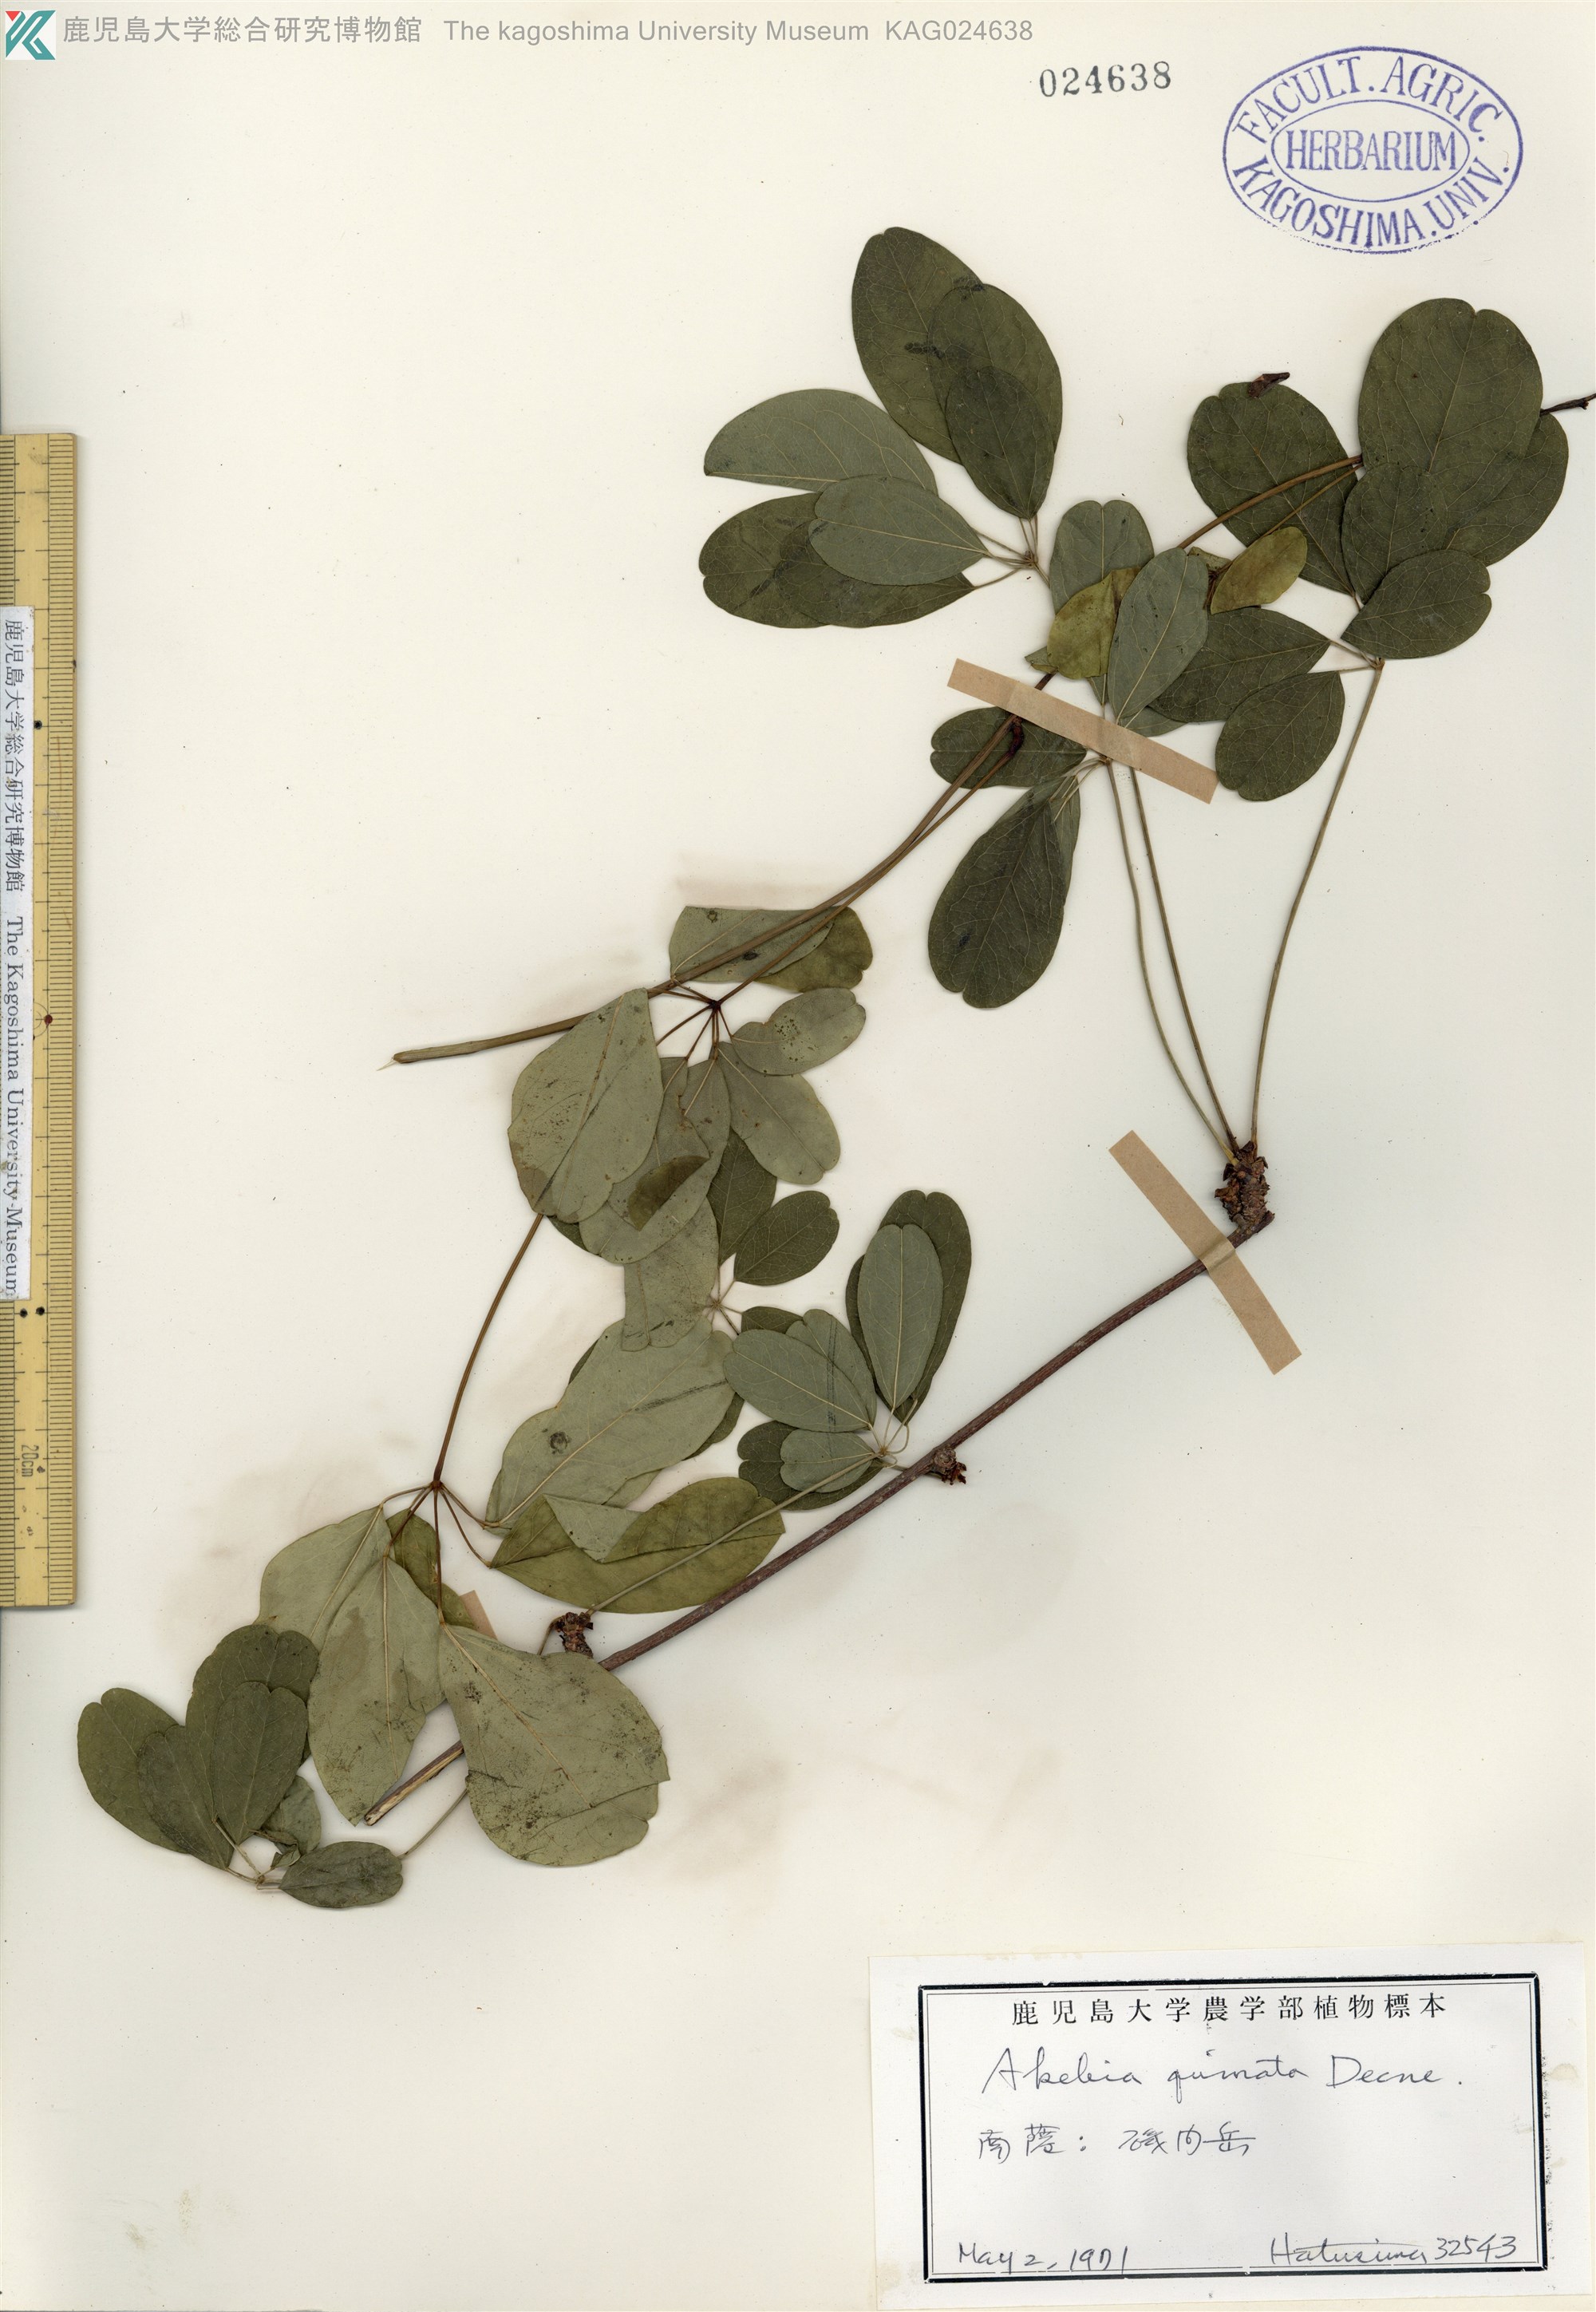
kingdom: Plantae
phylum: Tracheophyta
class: Magnoliopsida
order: Ranunculales
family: Lardizabalaceae
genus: Akebia
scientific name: Akebia quinata
